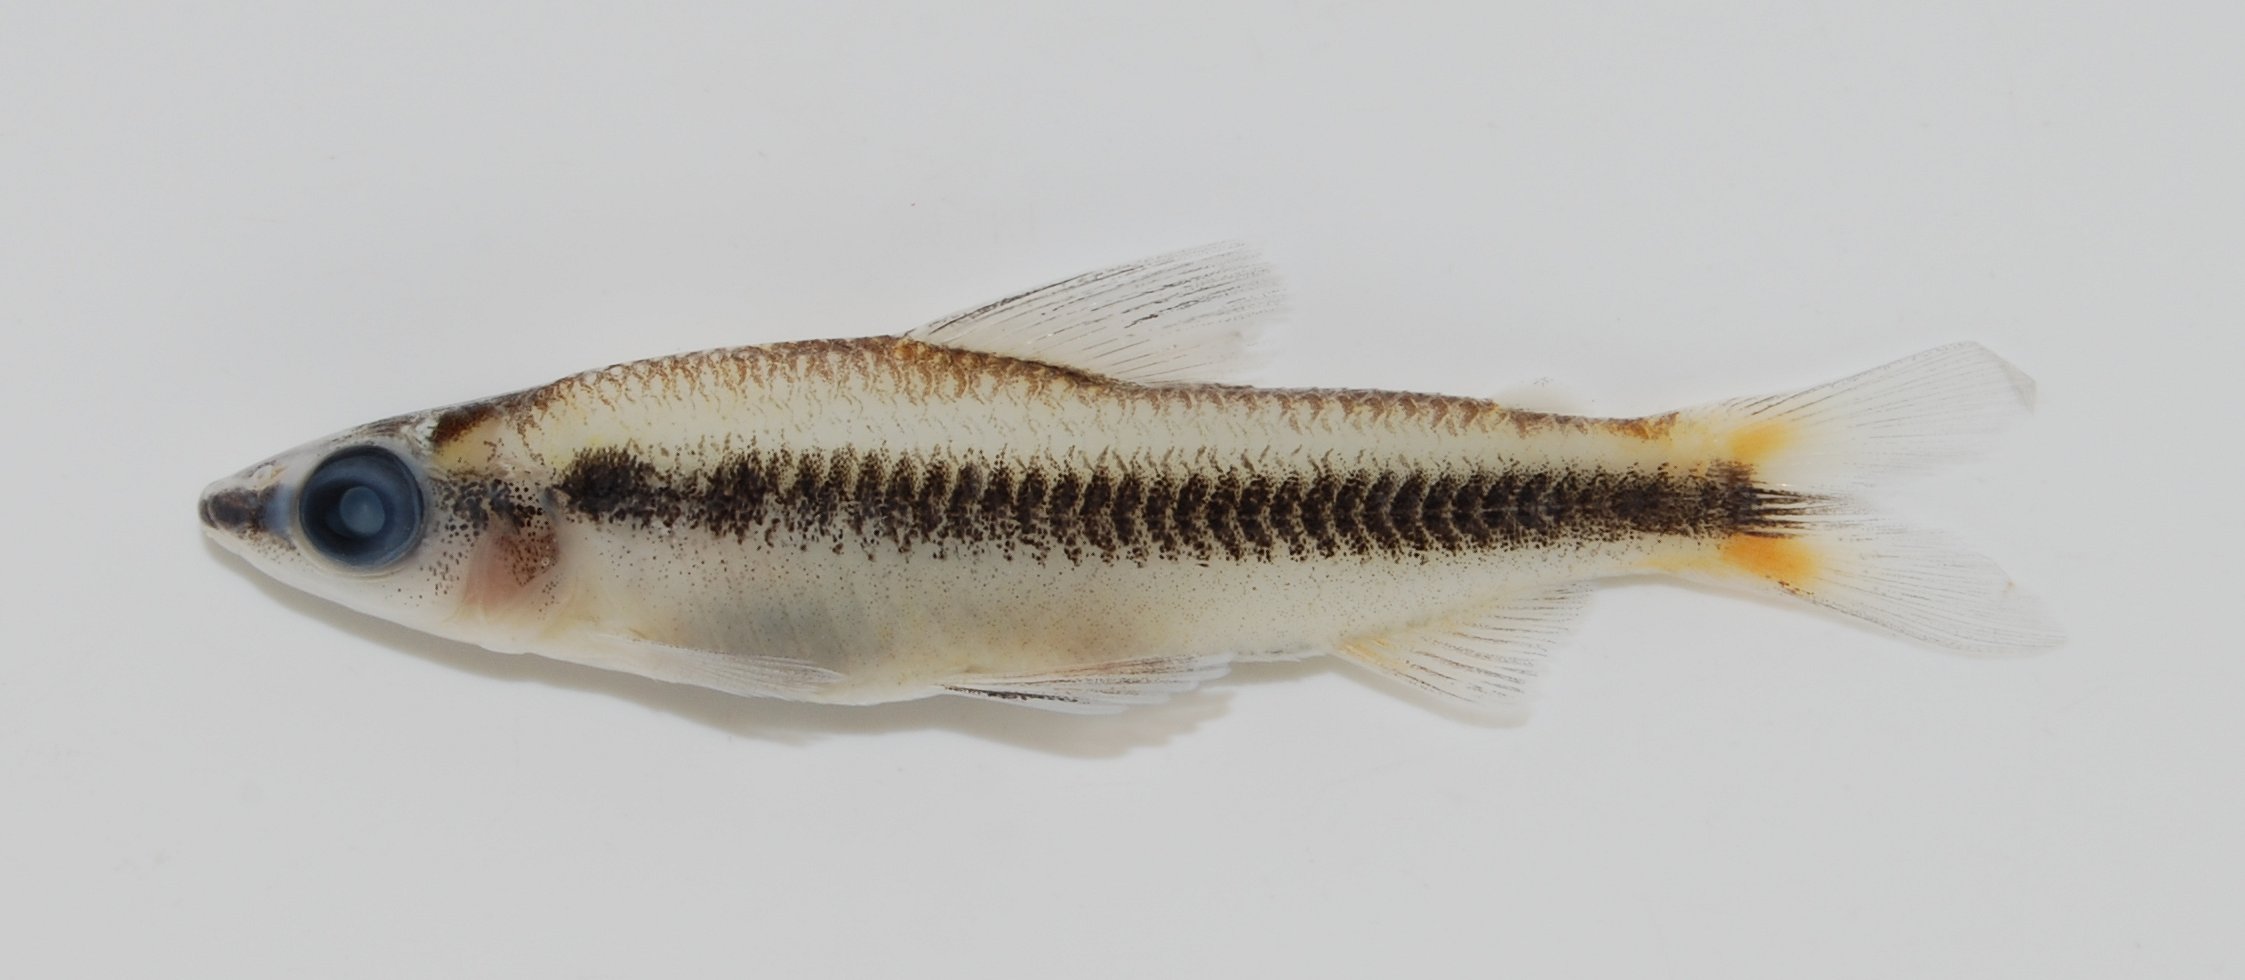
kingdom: Animalia
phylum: Chordata
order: Characiformes
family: Distichodontidae
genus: Nannocharax
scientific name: Nannocharax parvus
